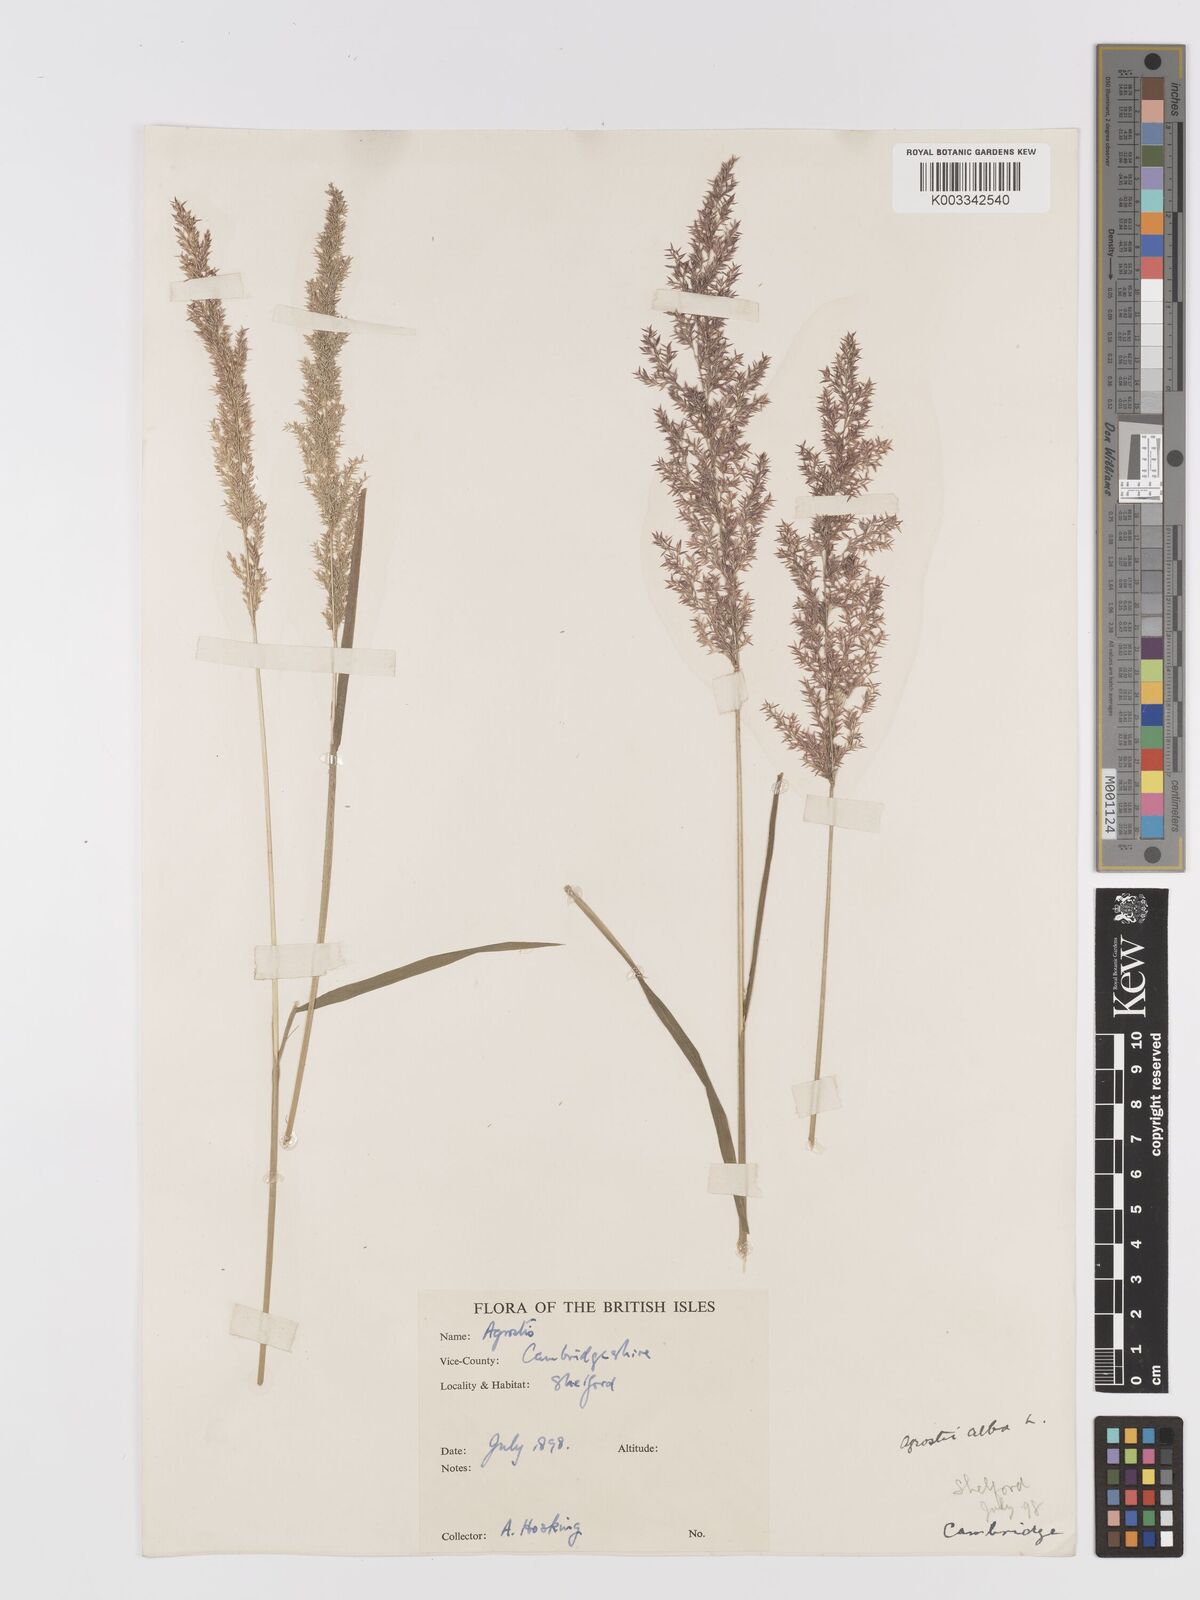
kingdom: Plantae
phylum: Tracheophyta
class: Liliopsida
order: Poales
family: Poaceae
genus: Agrostis
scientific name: Agrostis
